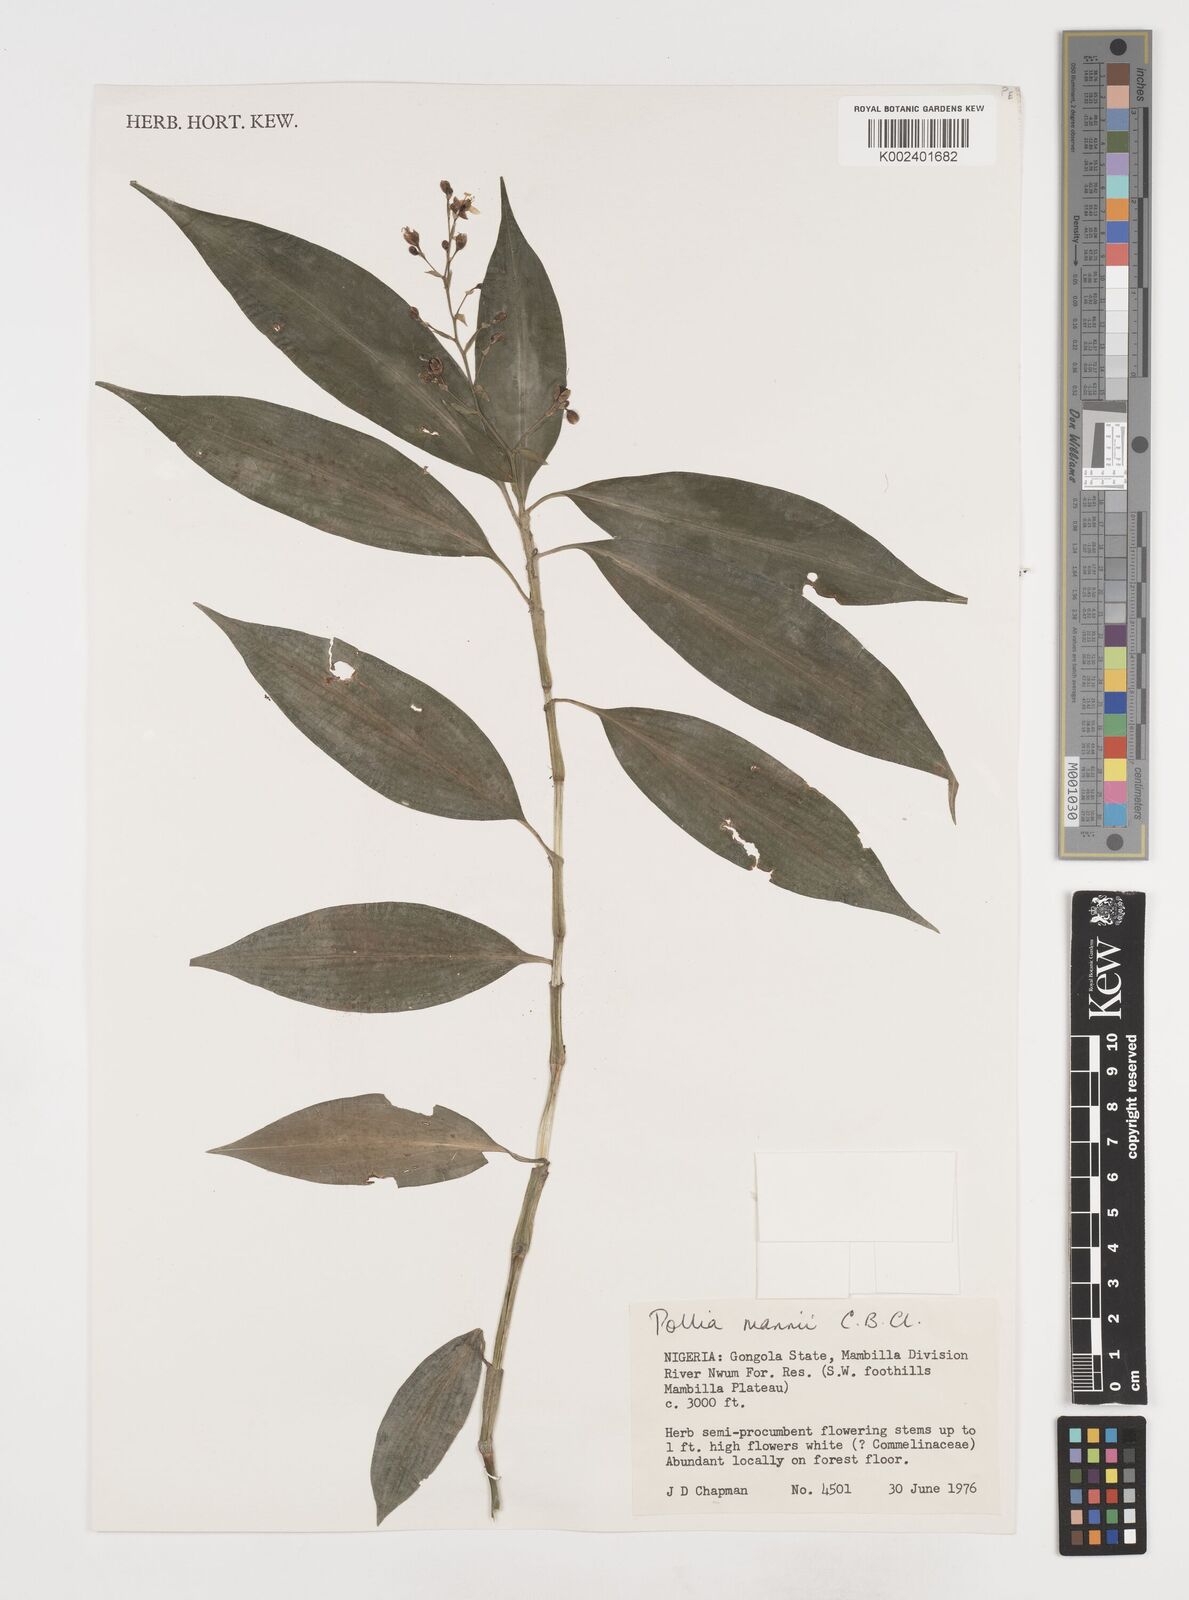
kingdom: Plantae
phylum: Tracheophyta
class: Liliopsida
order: Commelinales
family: Commelinaceae
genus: Pollia
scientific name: Pollia mannii
